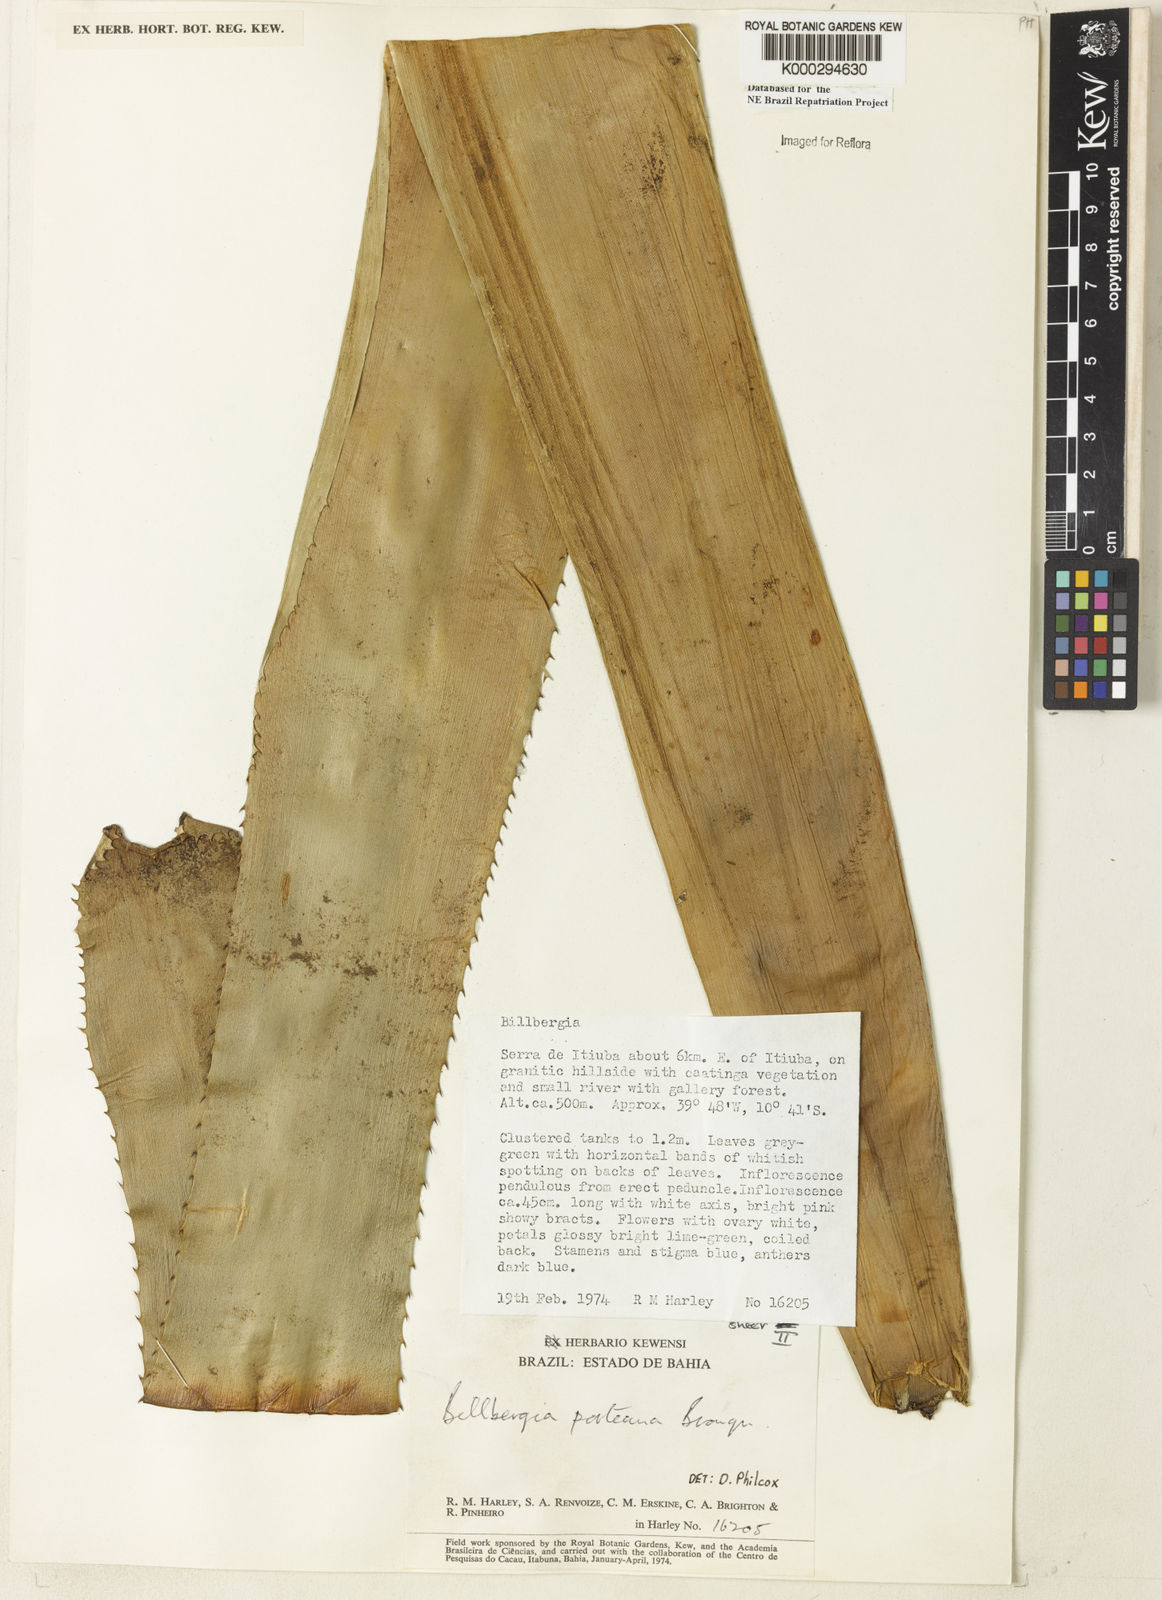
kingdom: Plantae
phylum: Tracheophyta
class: Liliopsida
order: Poales
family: Bromeliaceae
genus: Billbergia
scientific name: Billbergia porteana
